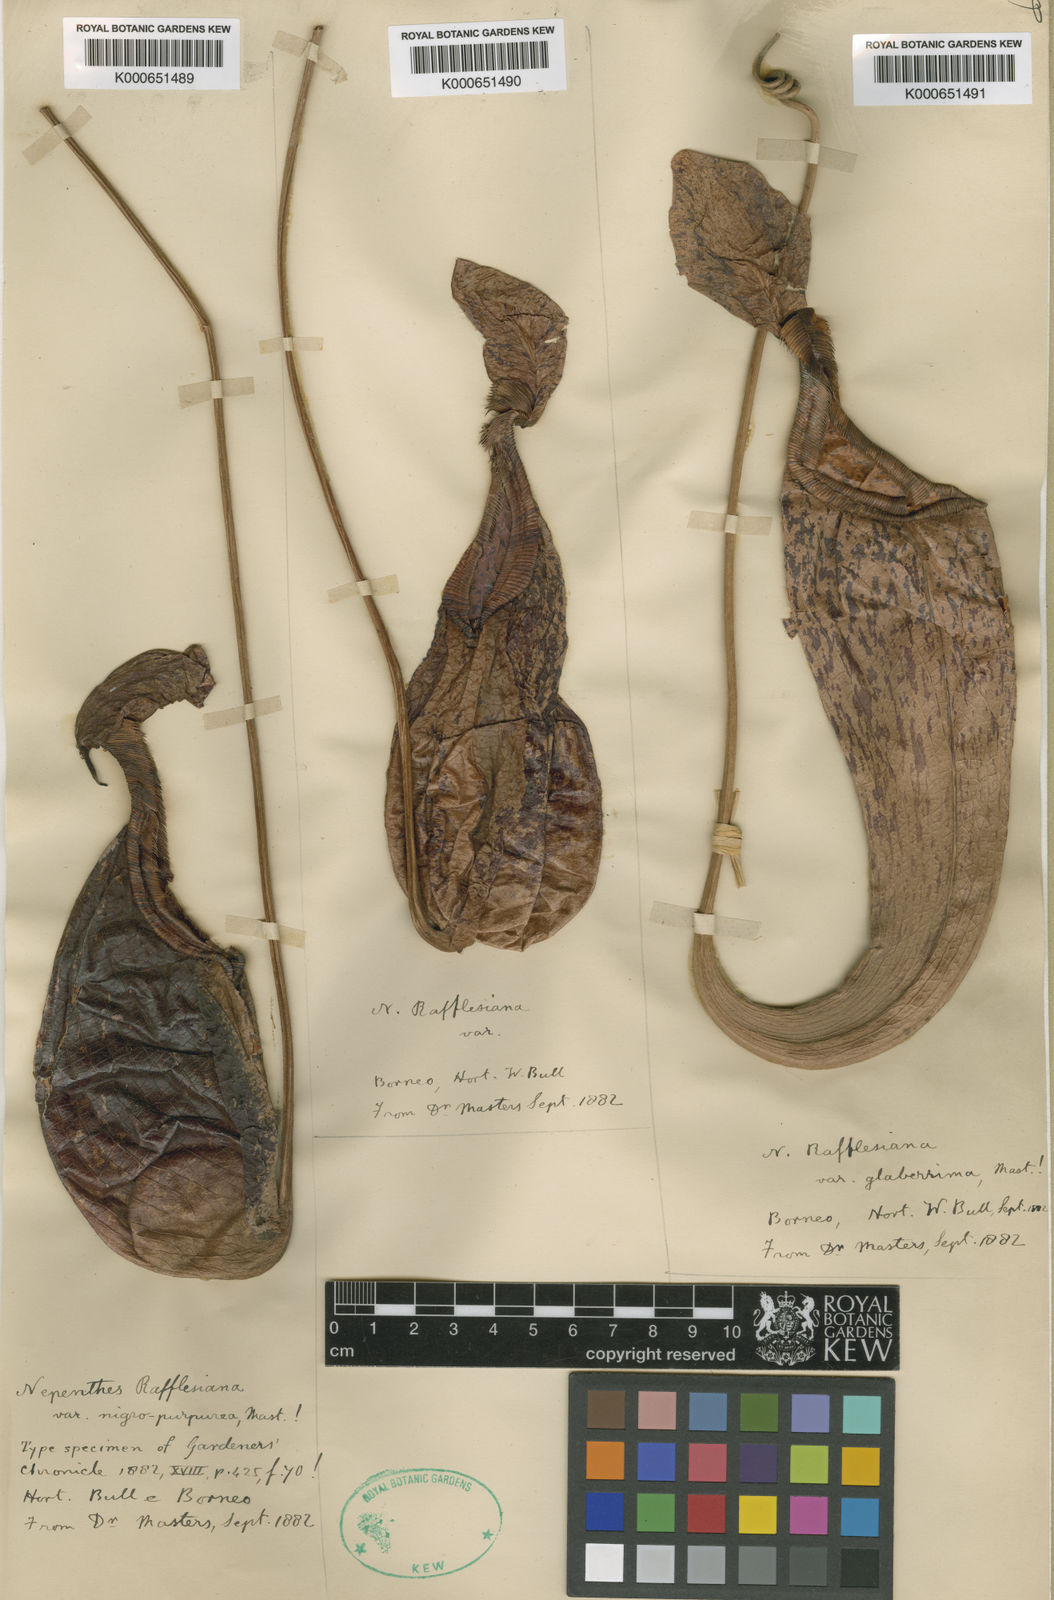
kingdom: Plantae
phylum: Tracheophyta
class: Magnoliopsida
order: Caryophyllales
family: Nepenthaceae
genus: Nepenthes
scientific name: Nepenthes rafflesiana
